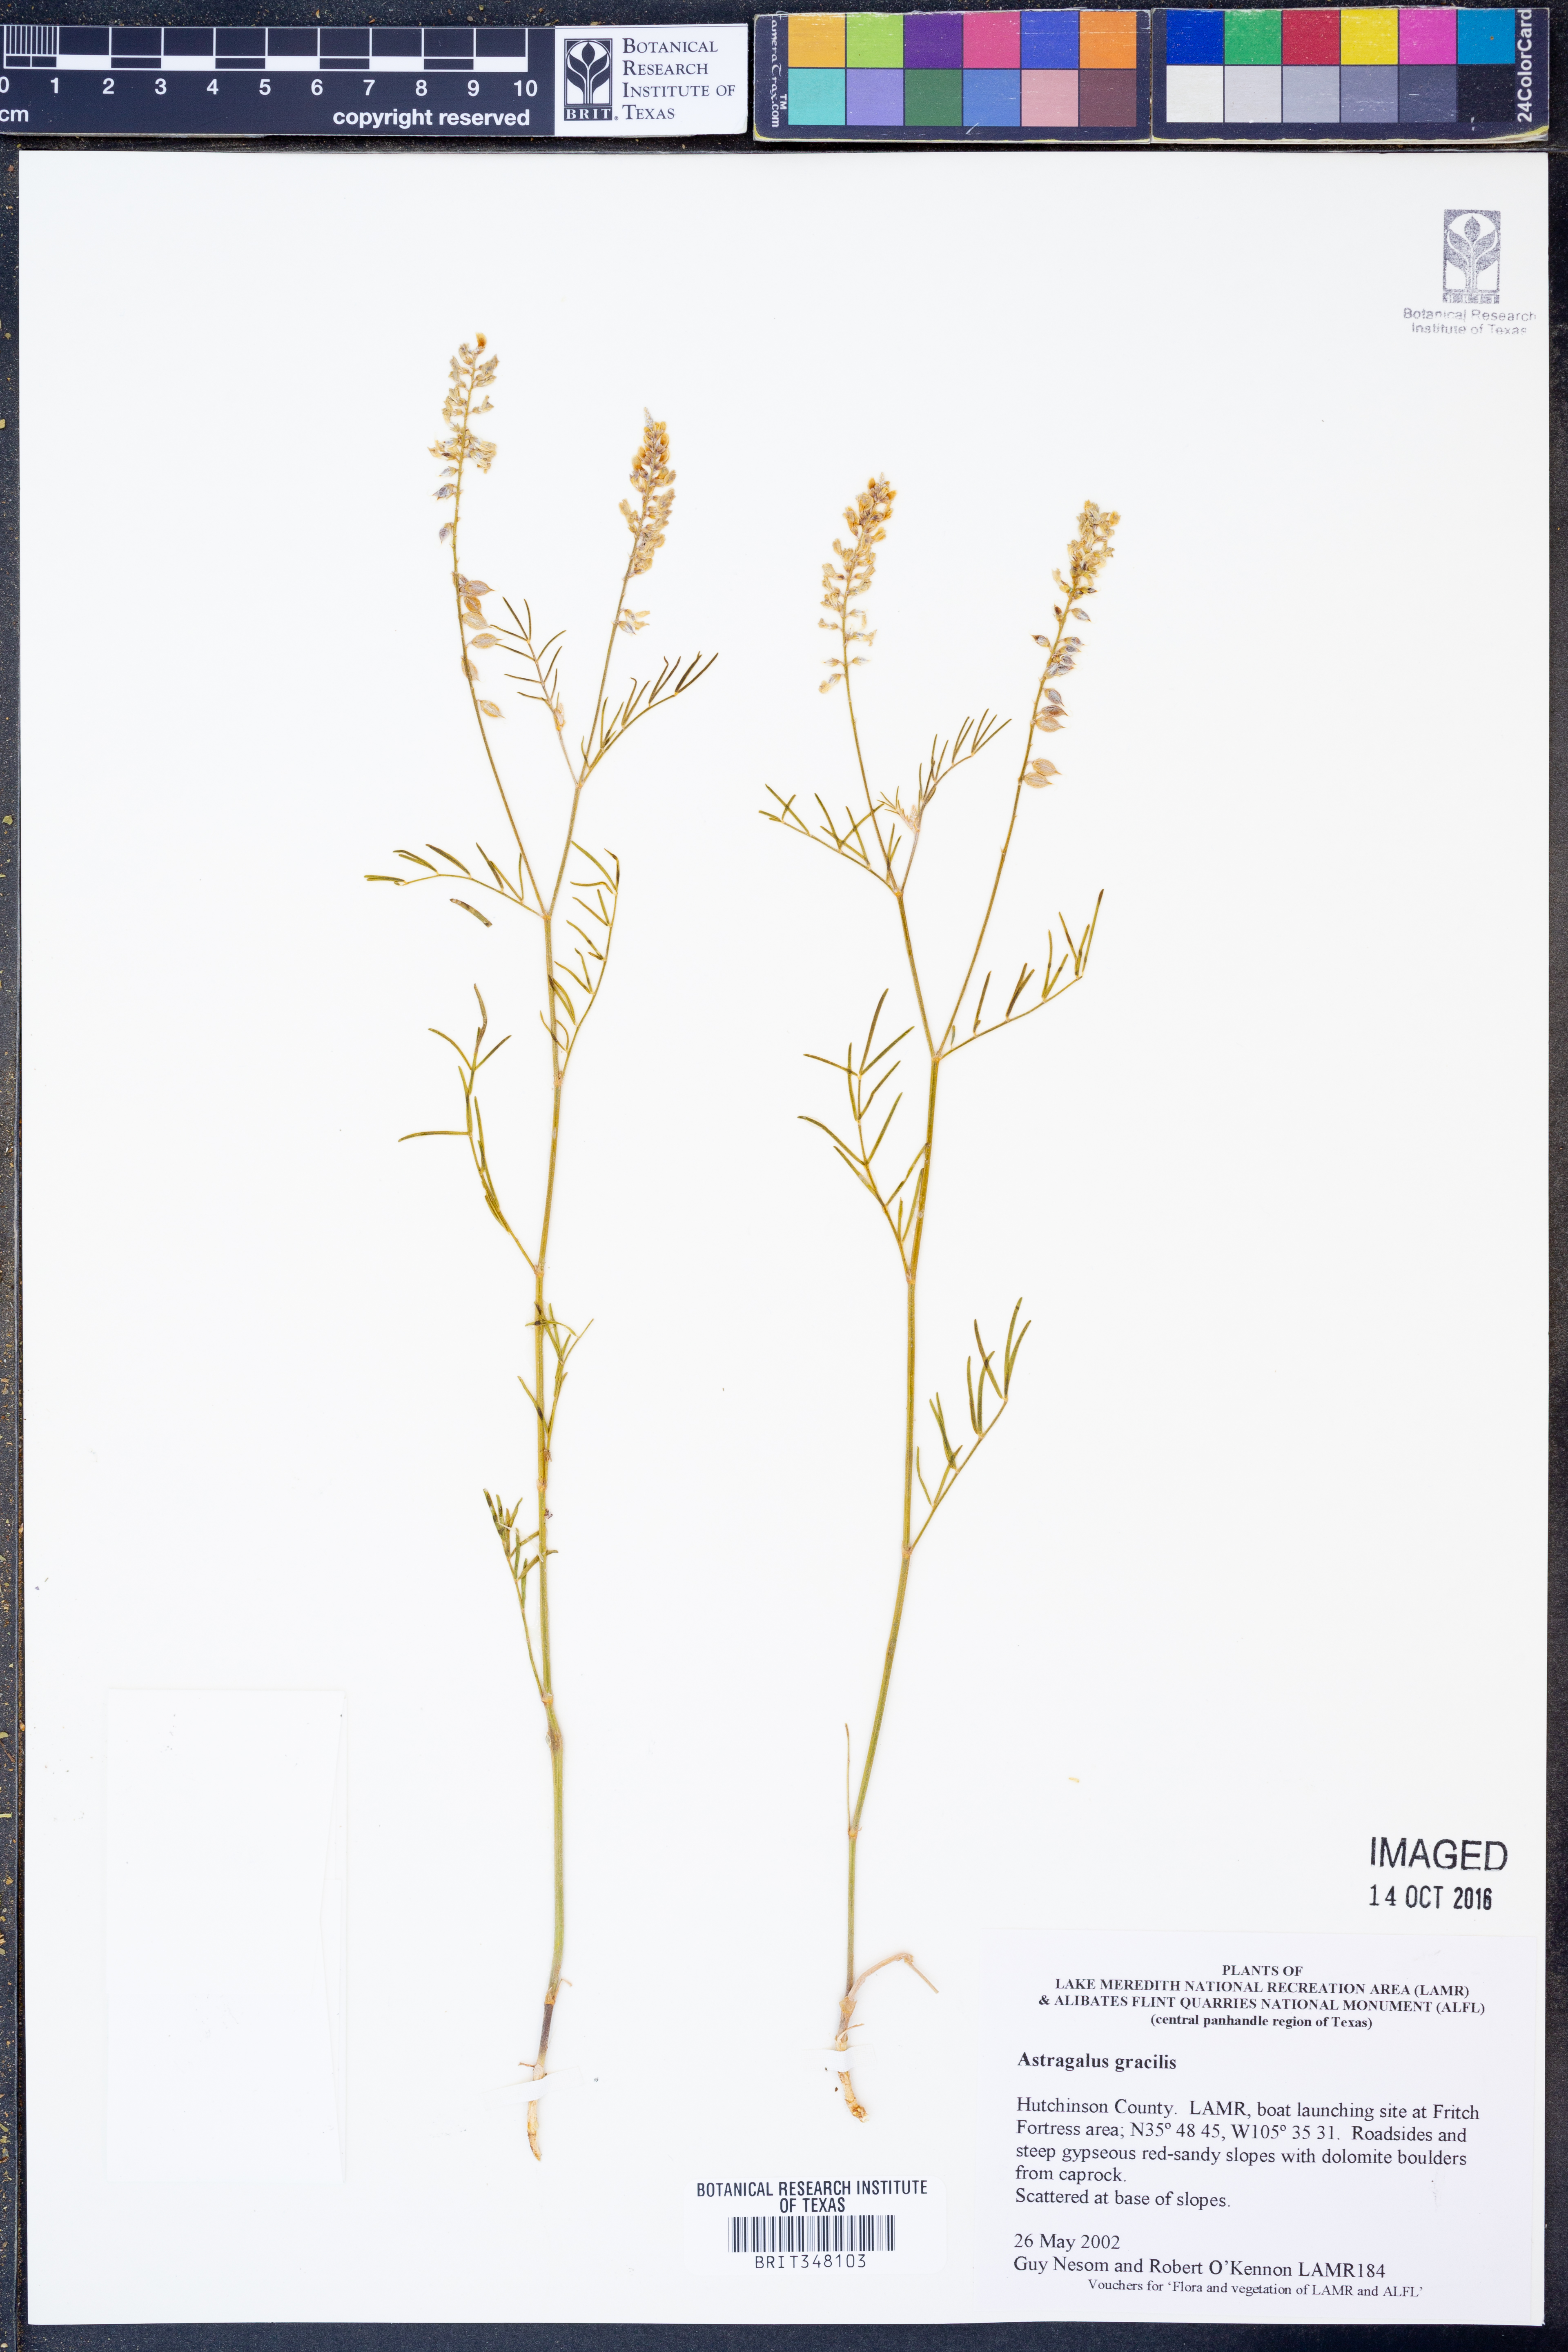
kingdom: Plantae
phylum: Tracheophyta
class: Magnoliopsida
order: Fabales
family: Fabaceae
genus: Astragalus
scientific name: Astragalus gracilis
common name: Slender milk-vetch
